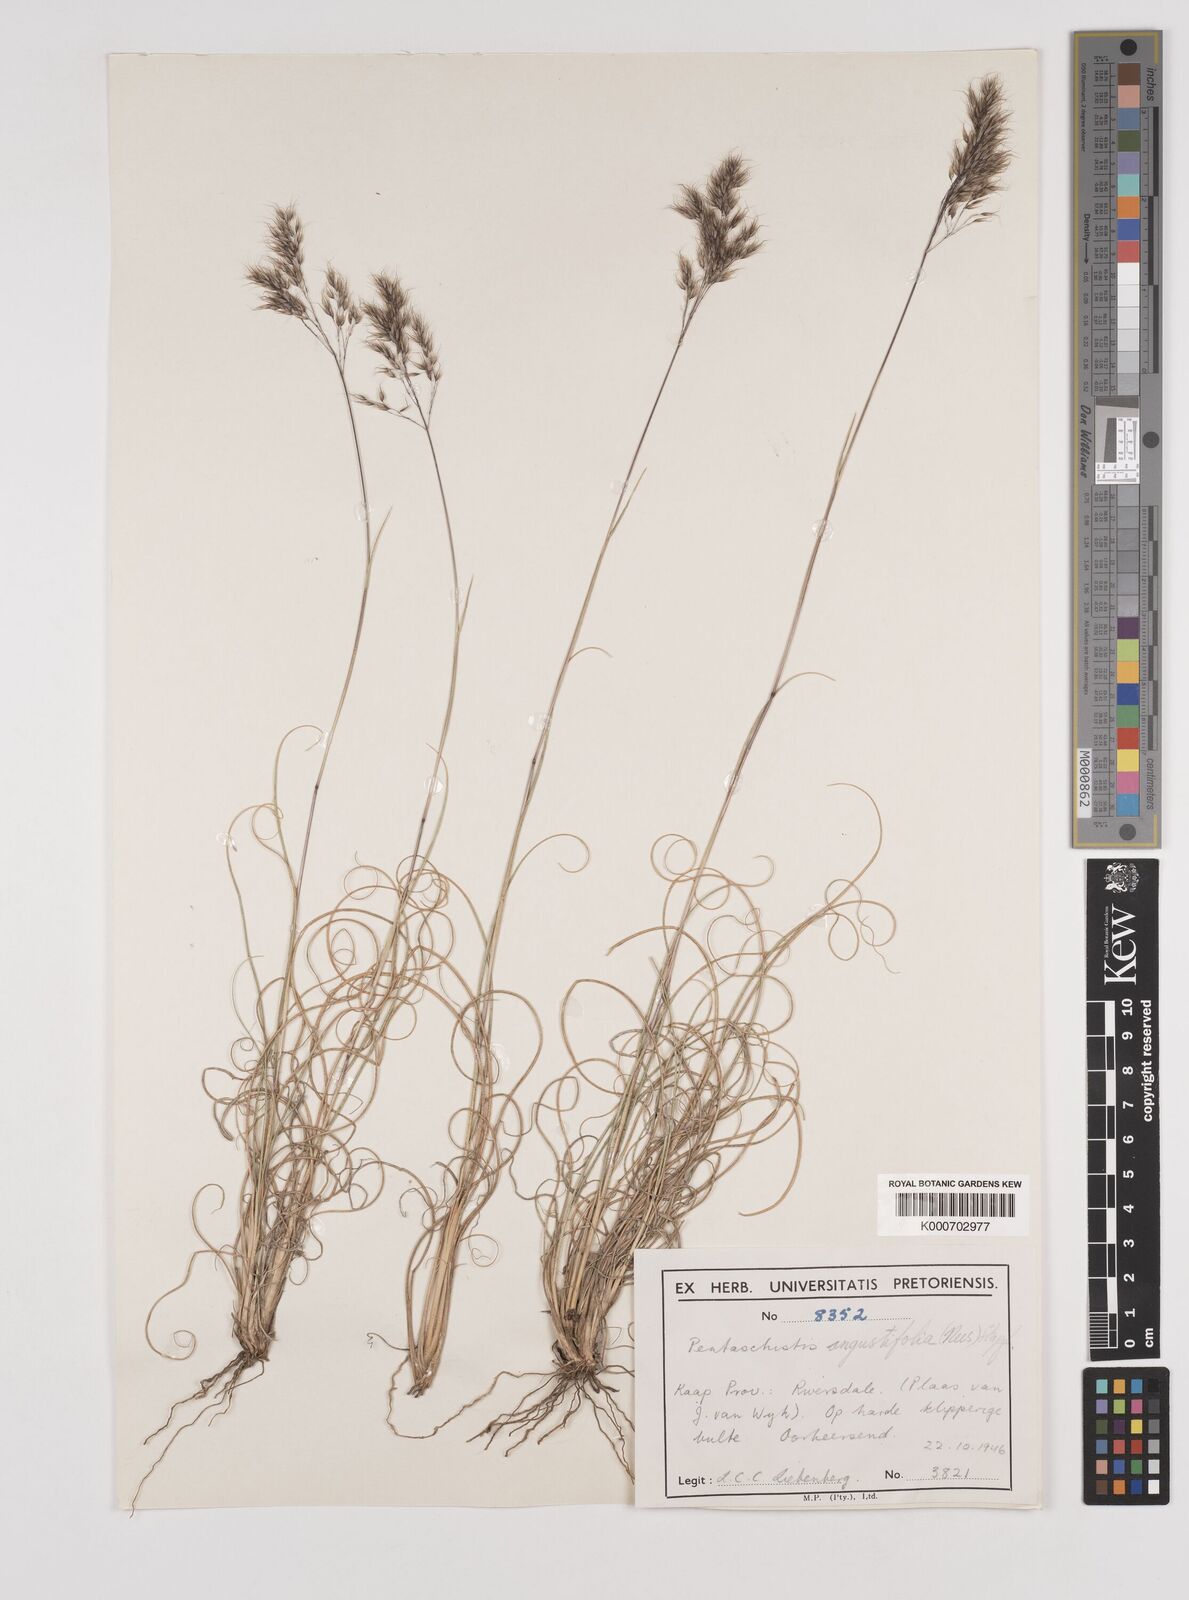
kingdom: Plantae
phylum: Tracheophyta
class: Liliopsida
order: Poales
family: Poaceae
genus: Pentameris
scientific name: Pentameris pallida
